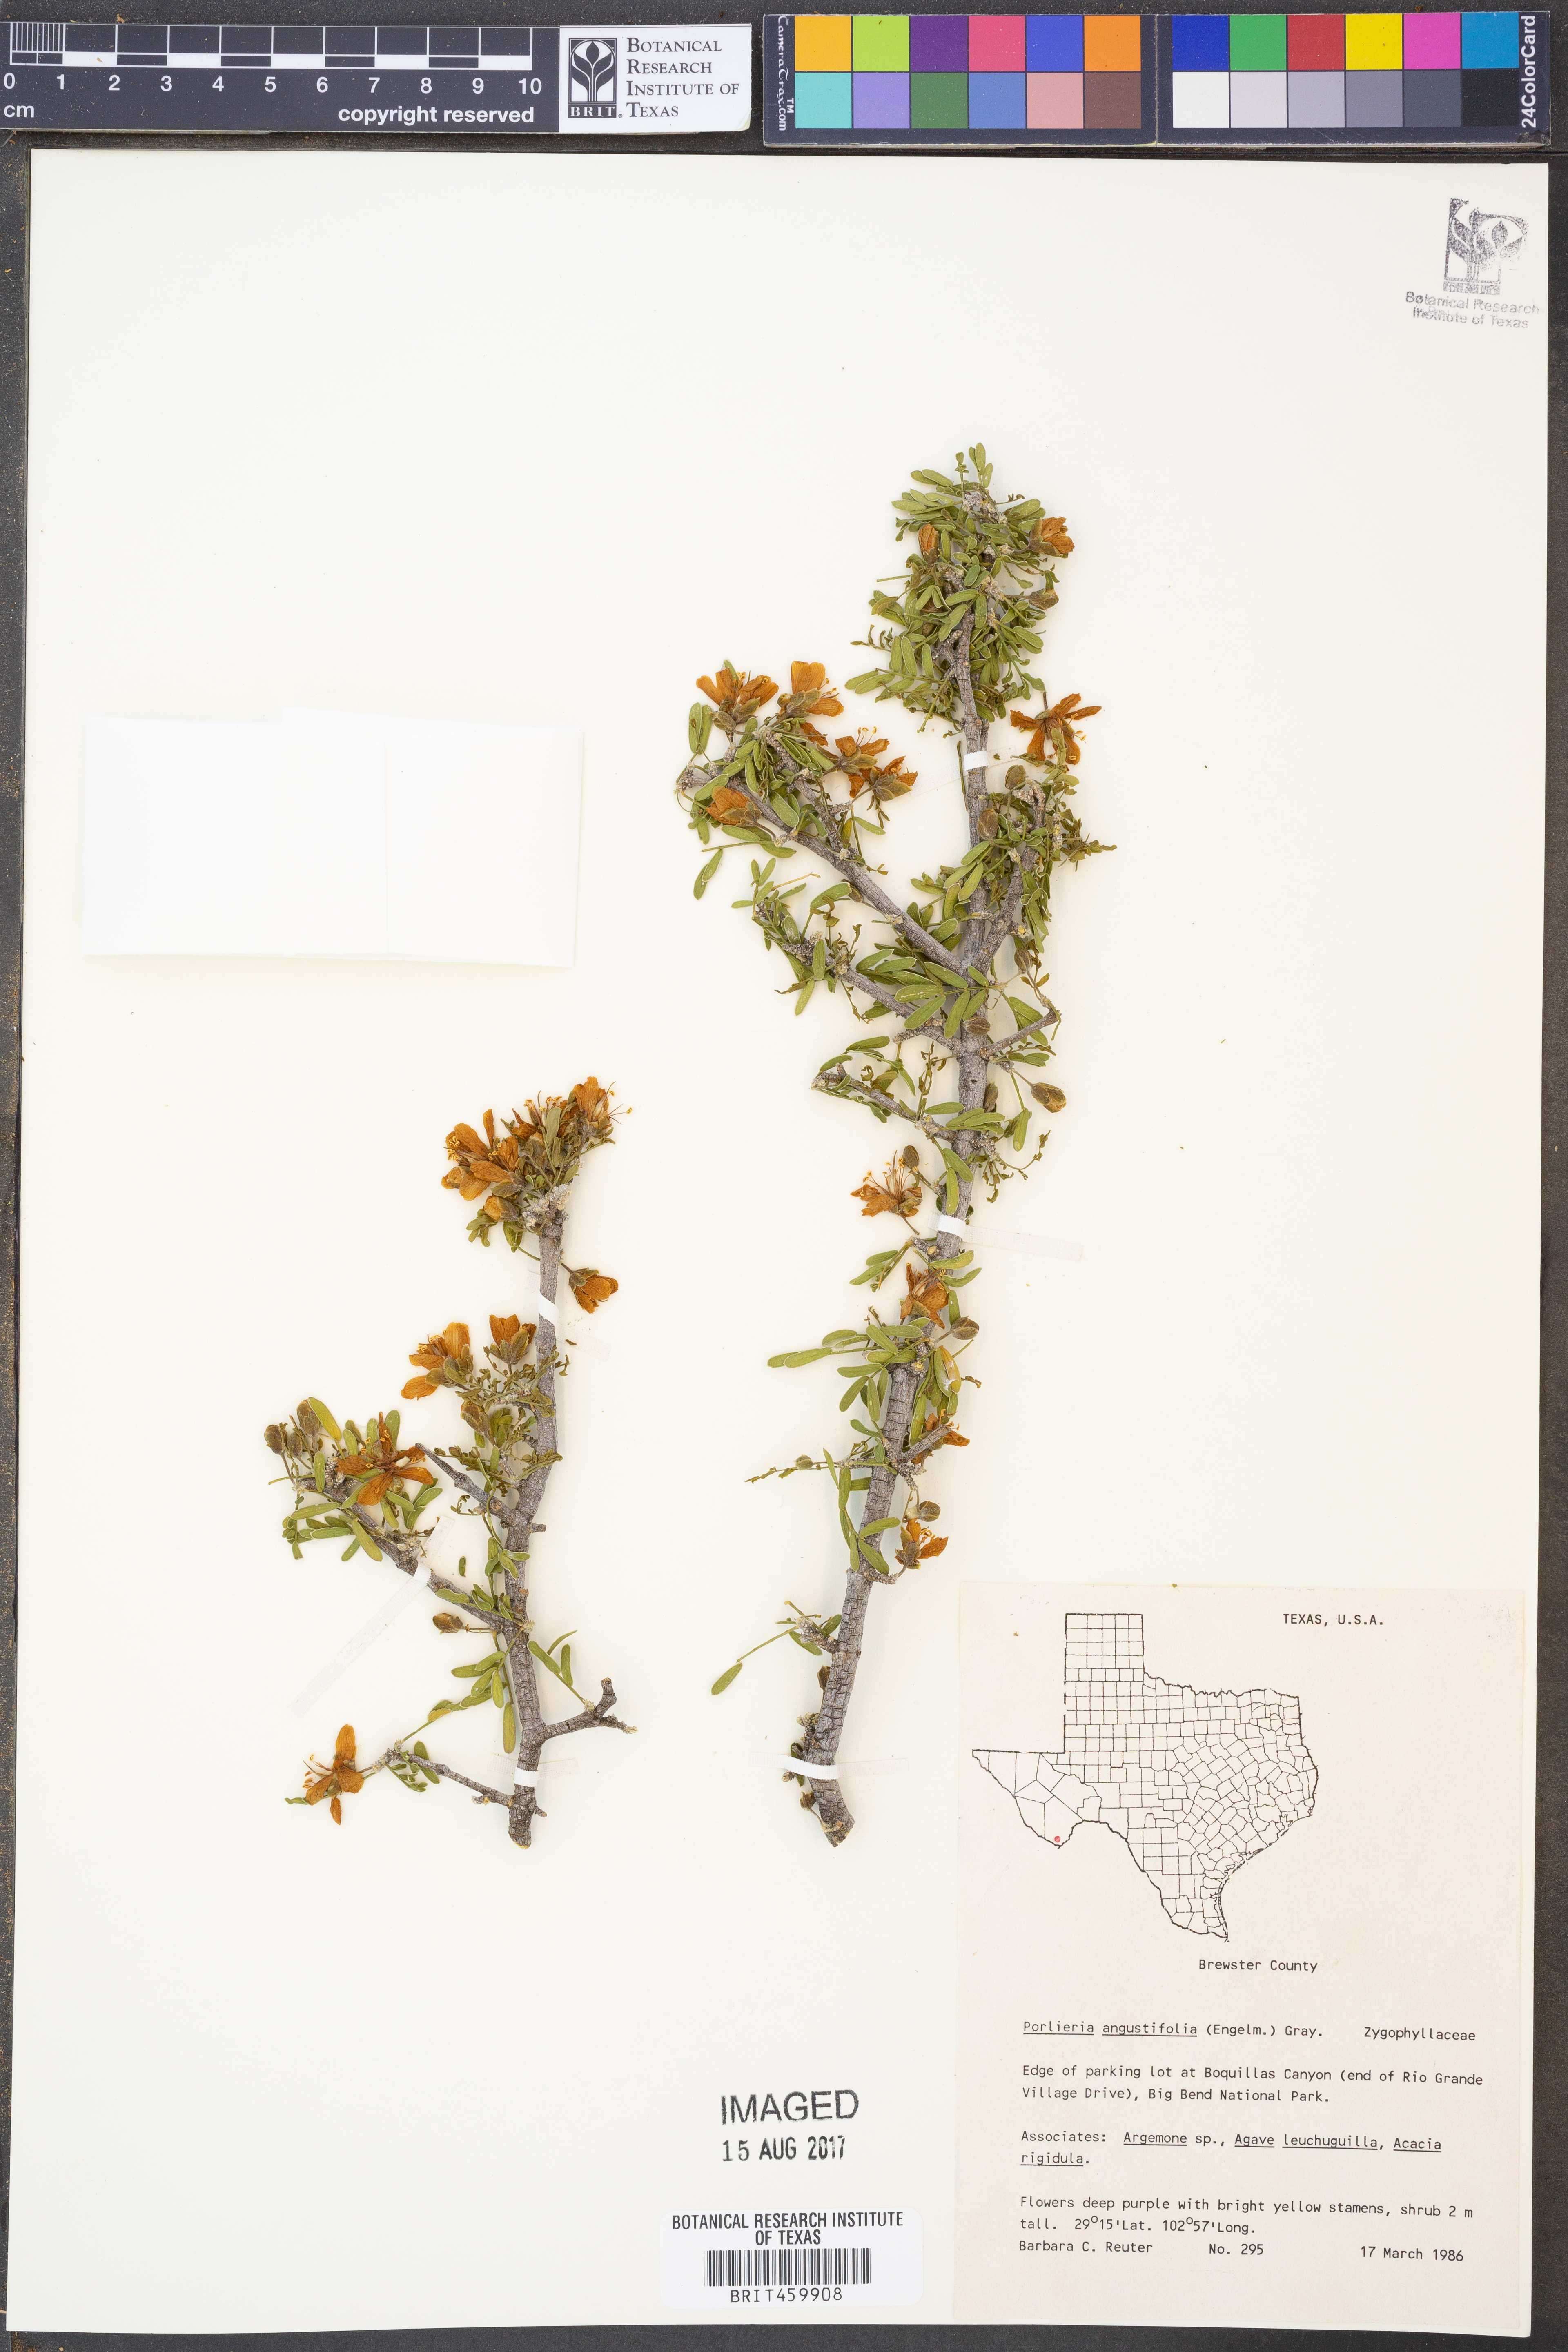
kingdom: Plantae
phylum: Tracheophyta
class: Magnoliopsida
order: Zygophyllales
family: Zygophyllaceae
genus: Porlieria
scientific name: Porlieria angustifolia
